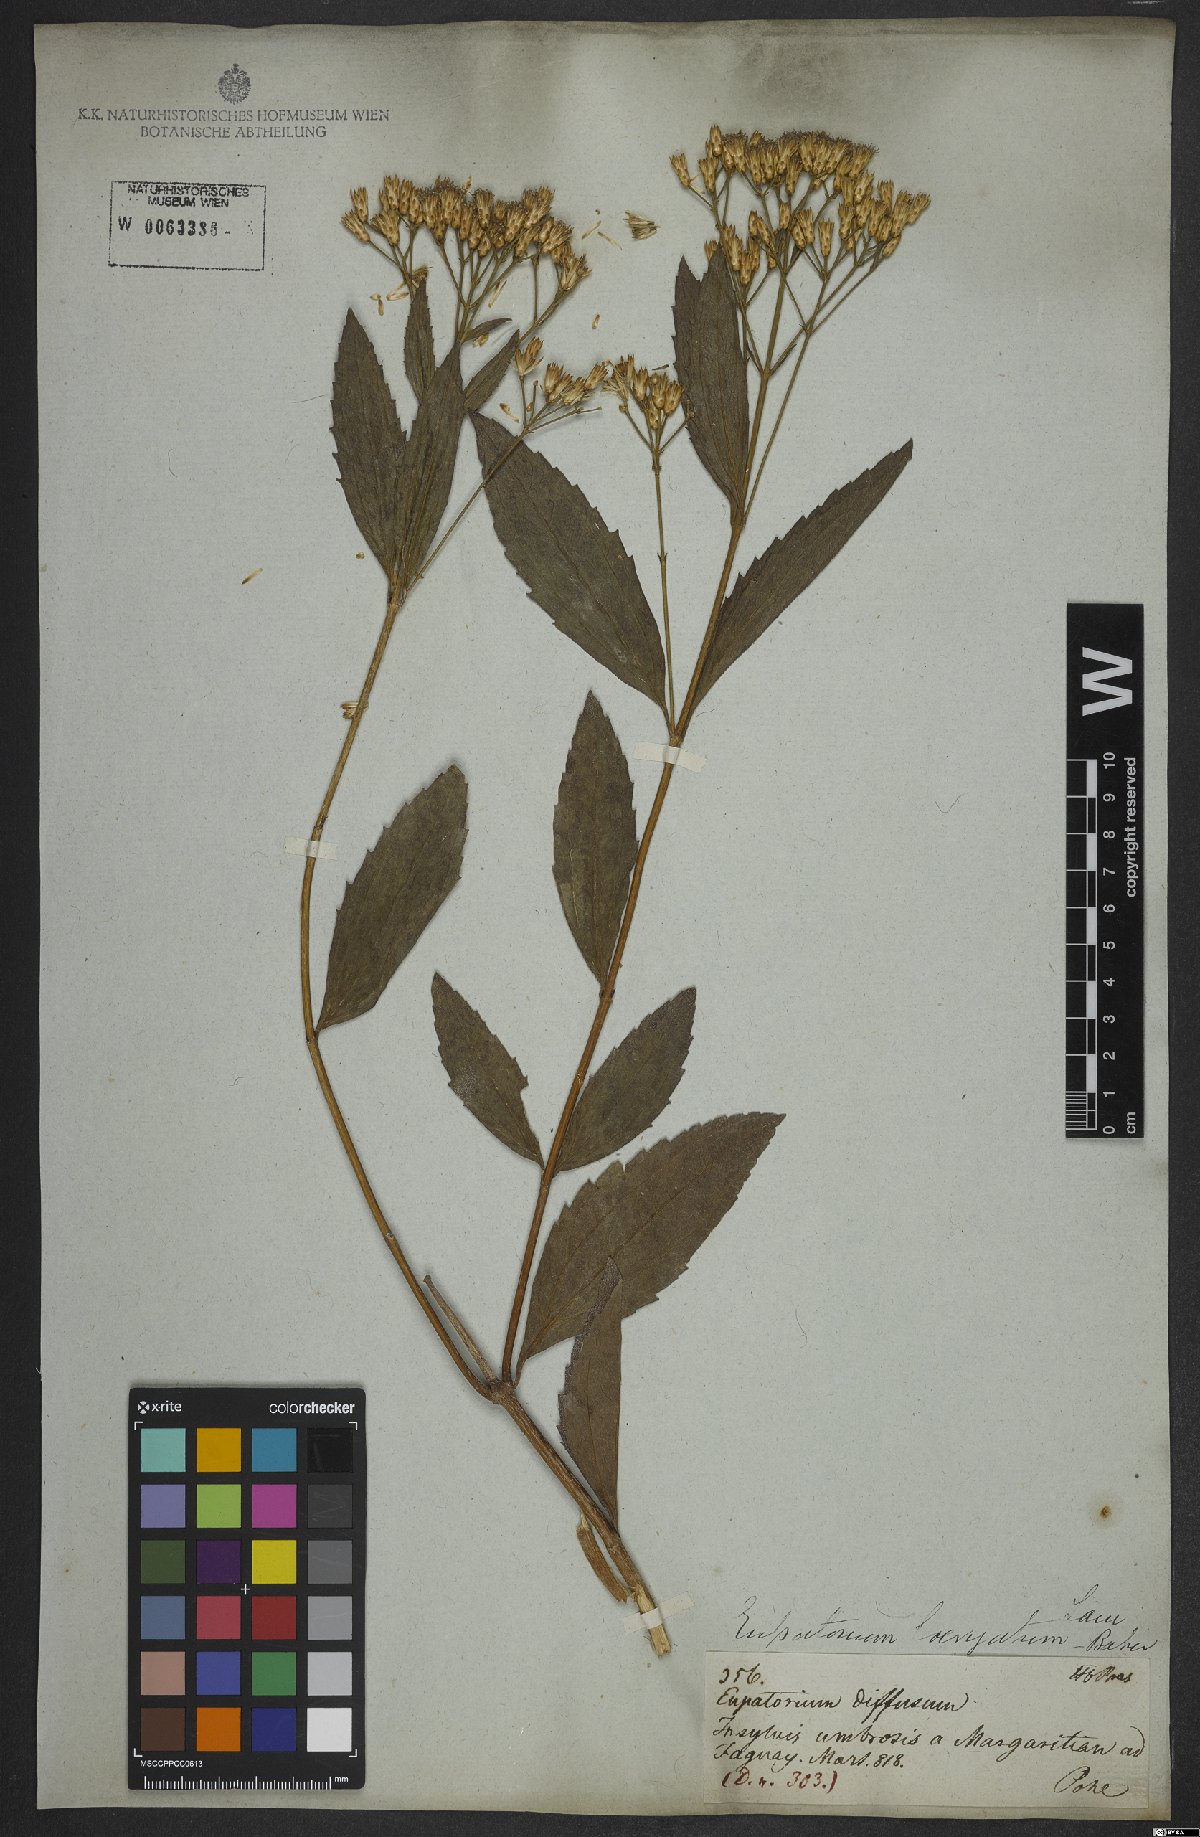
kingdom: Plantae
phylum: Tracheophyta
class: Magnoliopsida
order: Asterales
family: Asteraceae
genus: Eupatorium
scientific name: Eupatorium laevigatum
